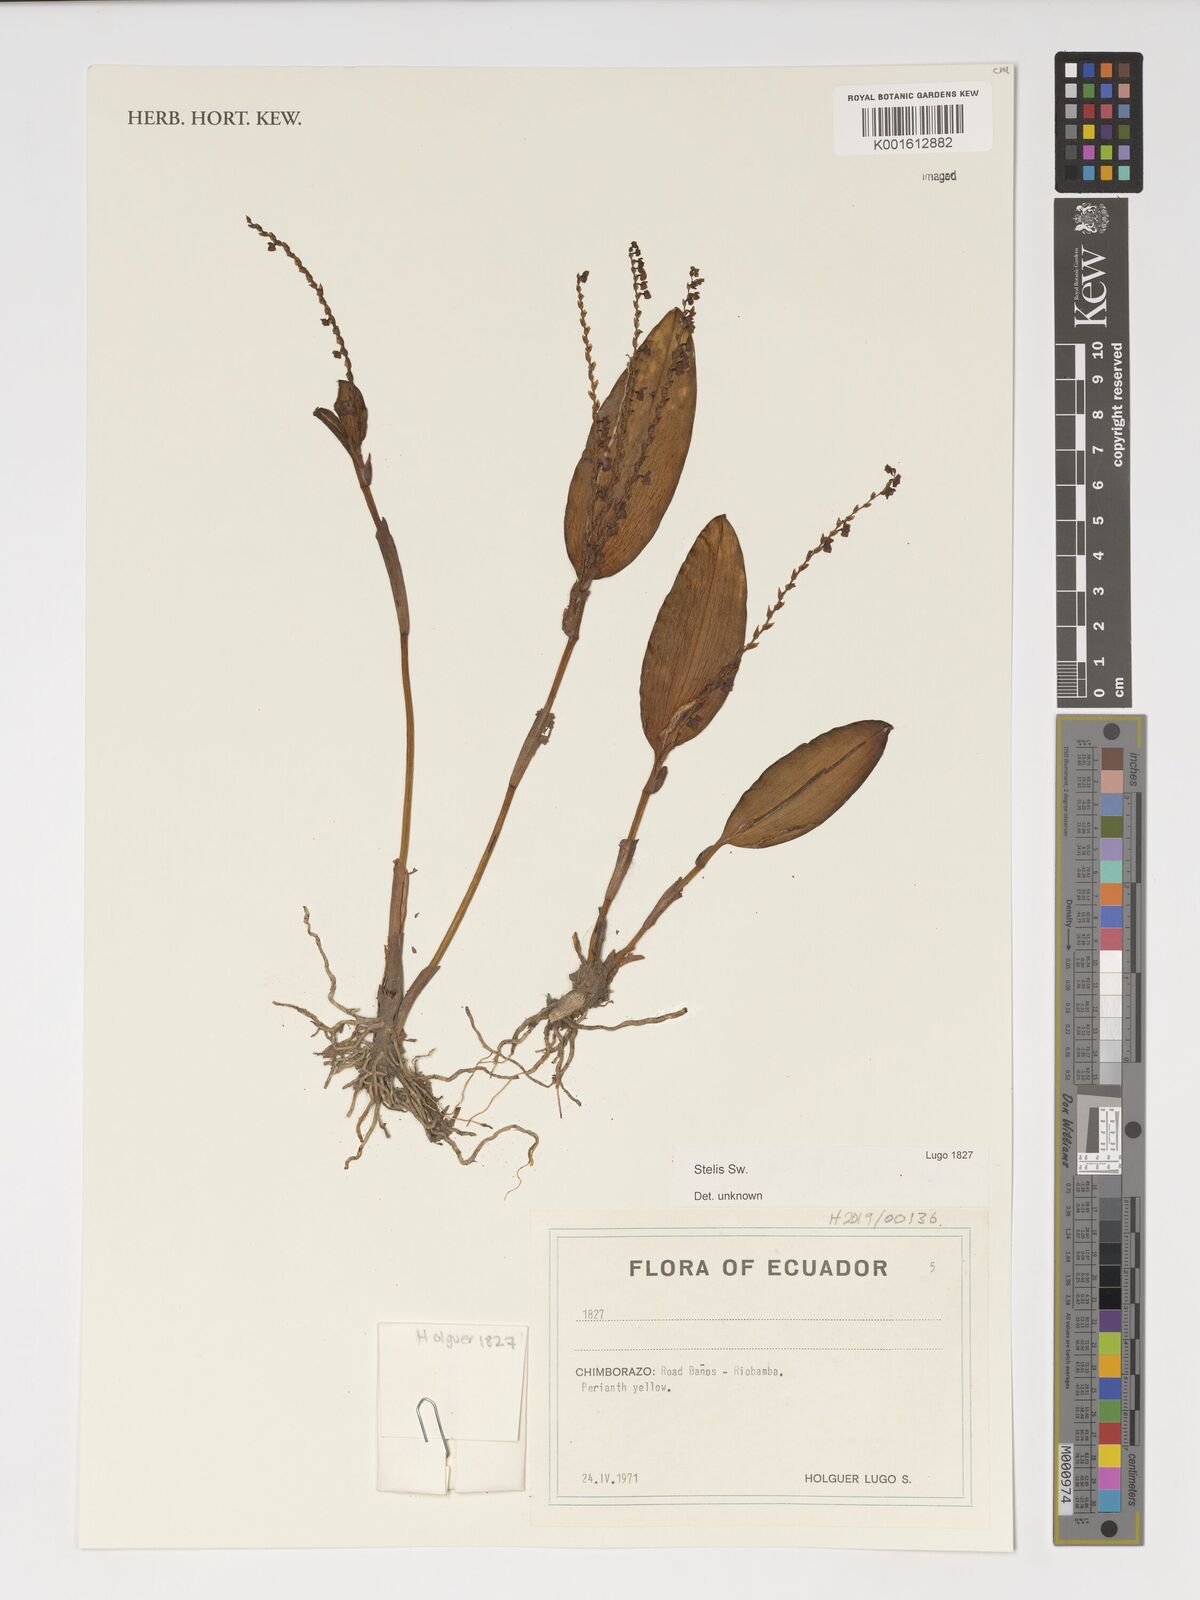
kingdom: Plantae
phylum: Tracheophyta
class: Liliopsida
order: Asparagales
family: Orchidaceae
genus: Stelis
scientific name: Stelis
